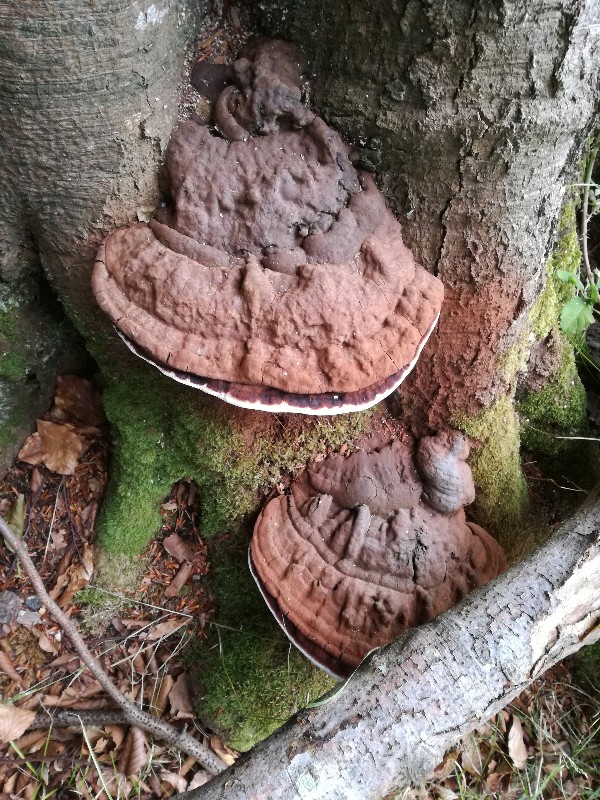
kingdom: Fungi
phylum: Basidiomycota
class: Agaricomycetes
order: Polyporales
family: Polyporaceae
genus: Ganoderma
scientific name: Ganoderma pfeifferi
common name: kobberrød lakporesvamp
